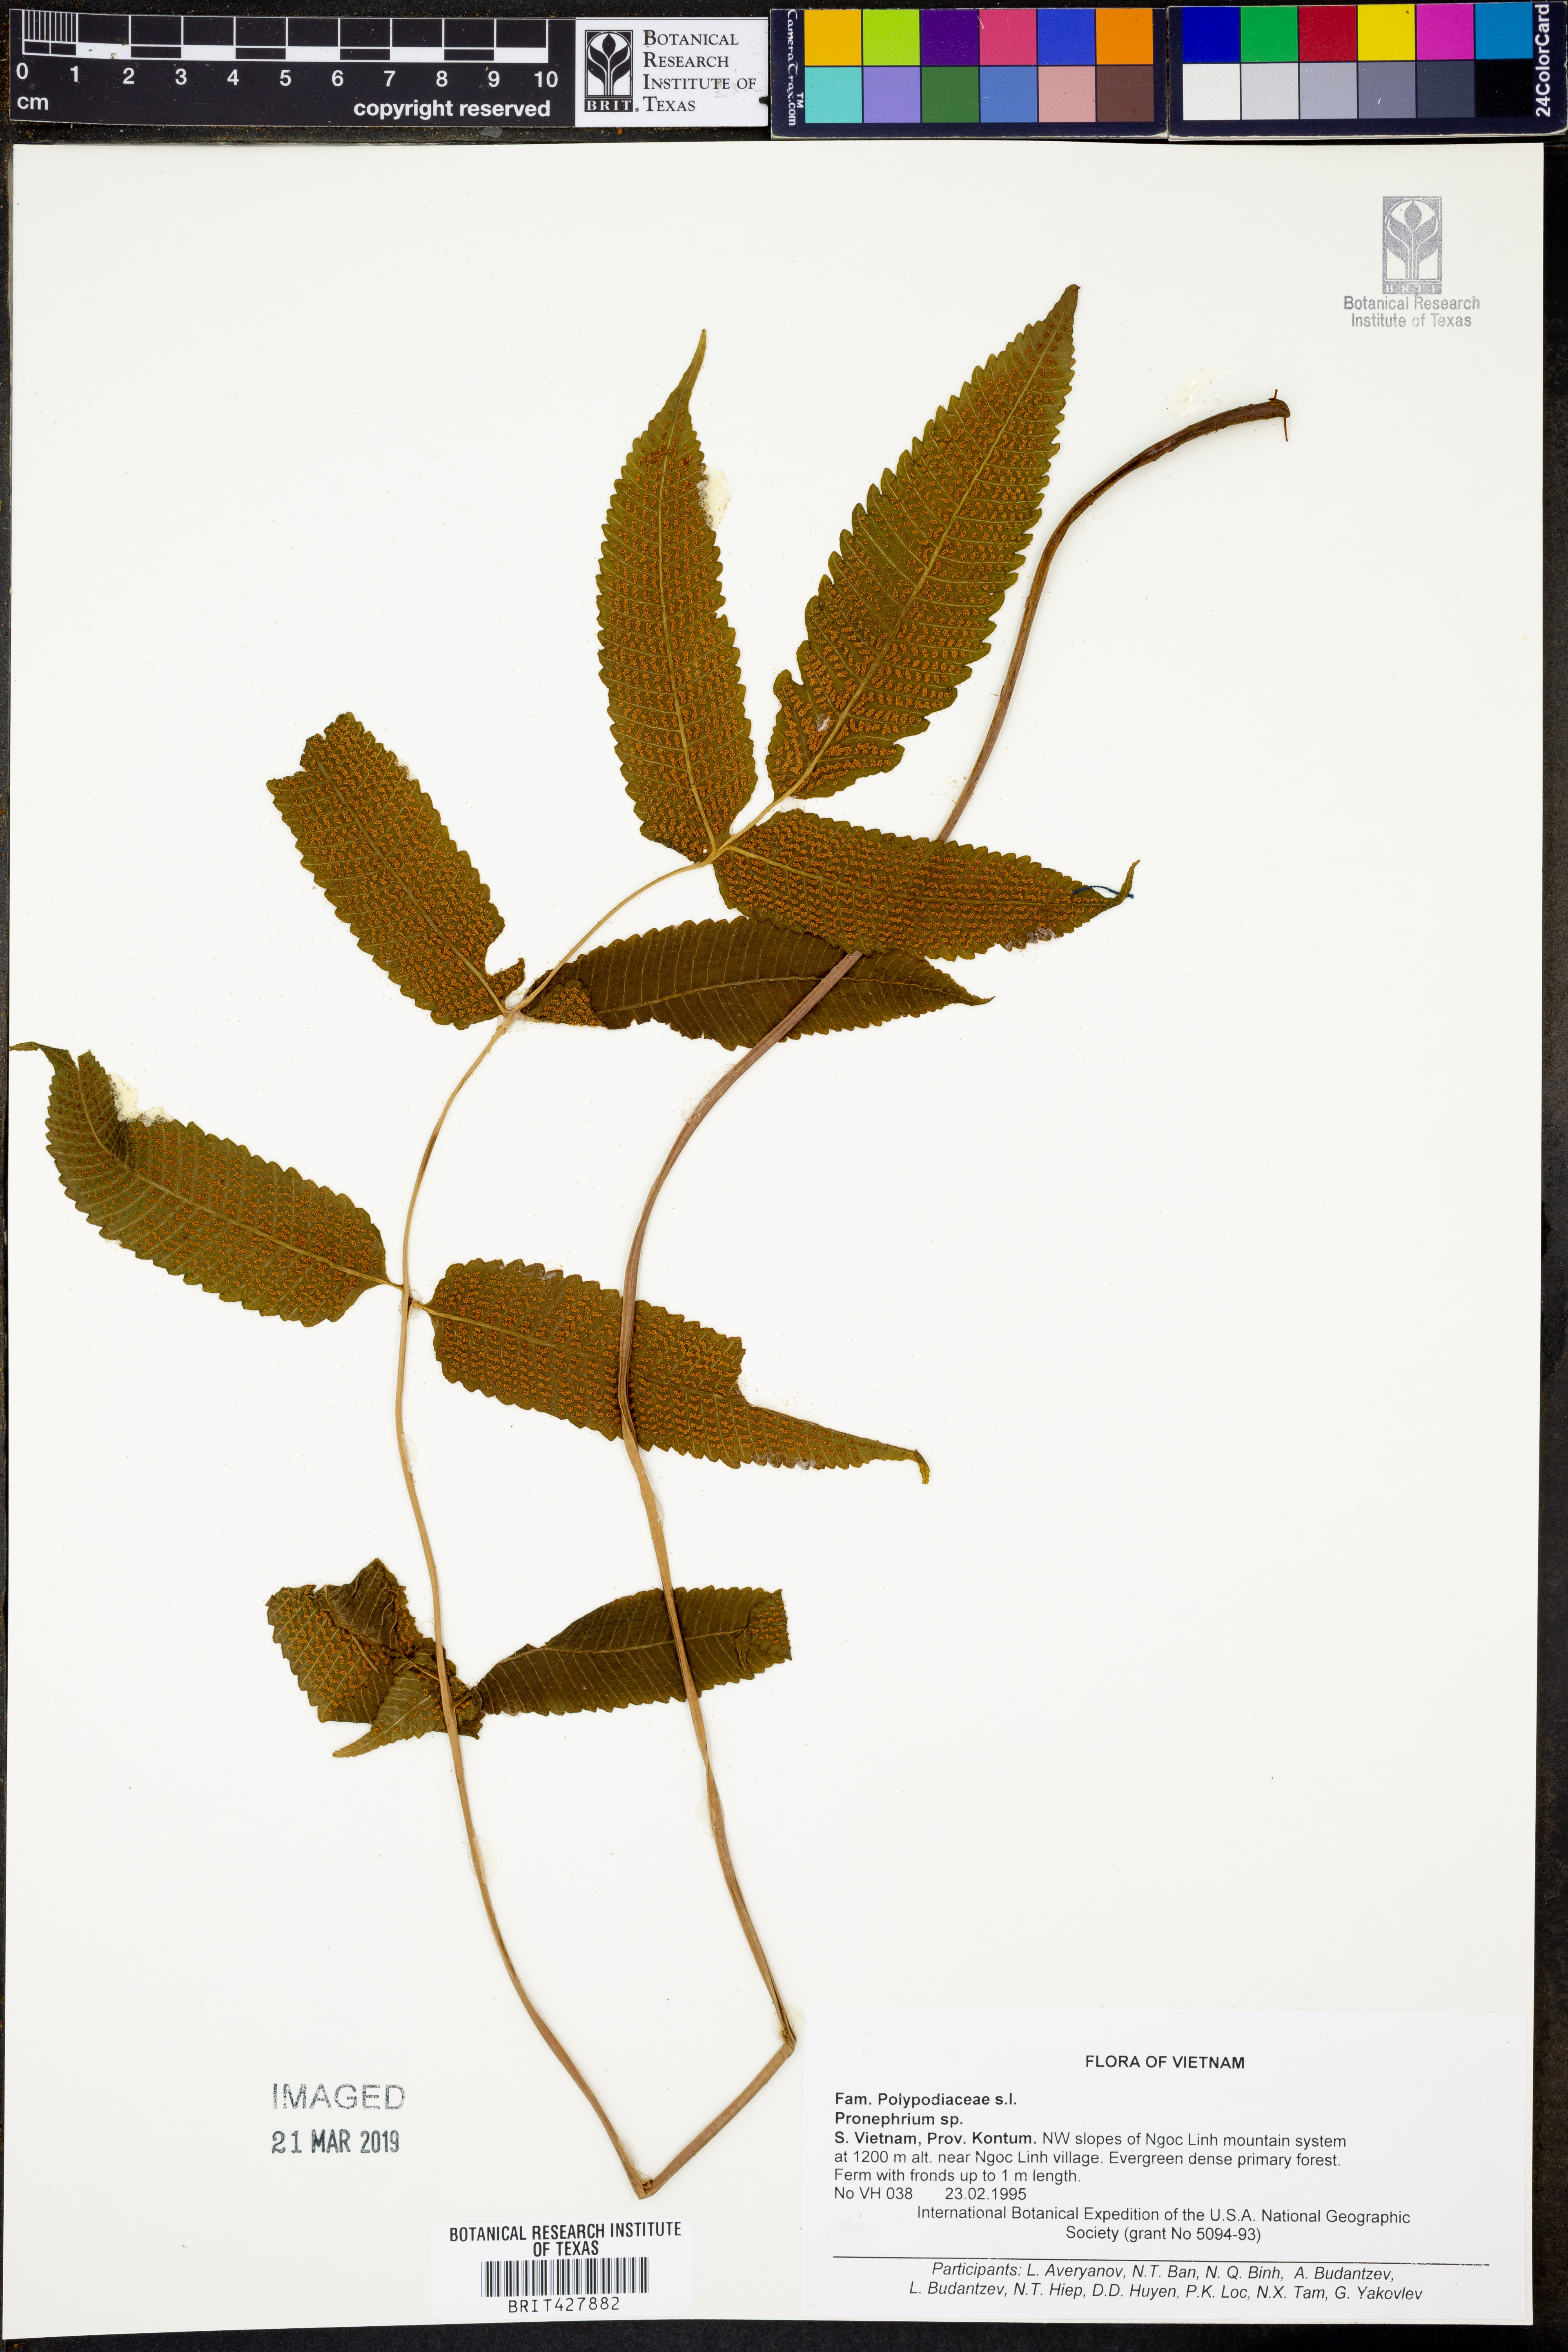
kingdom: Plantae
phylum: Tracheophyta
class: Polypodiopsida
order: Polypodiales
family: Thelypteridaceae
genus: Pronephrium
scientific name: Pronephrium
